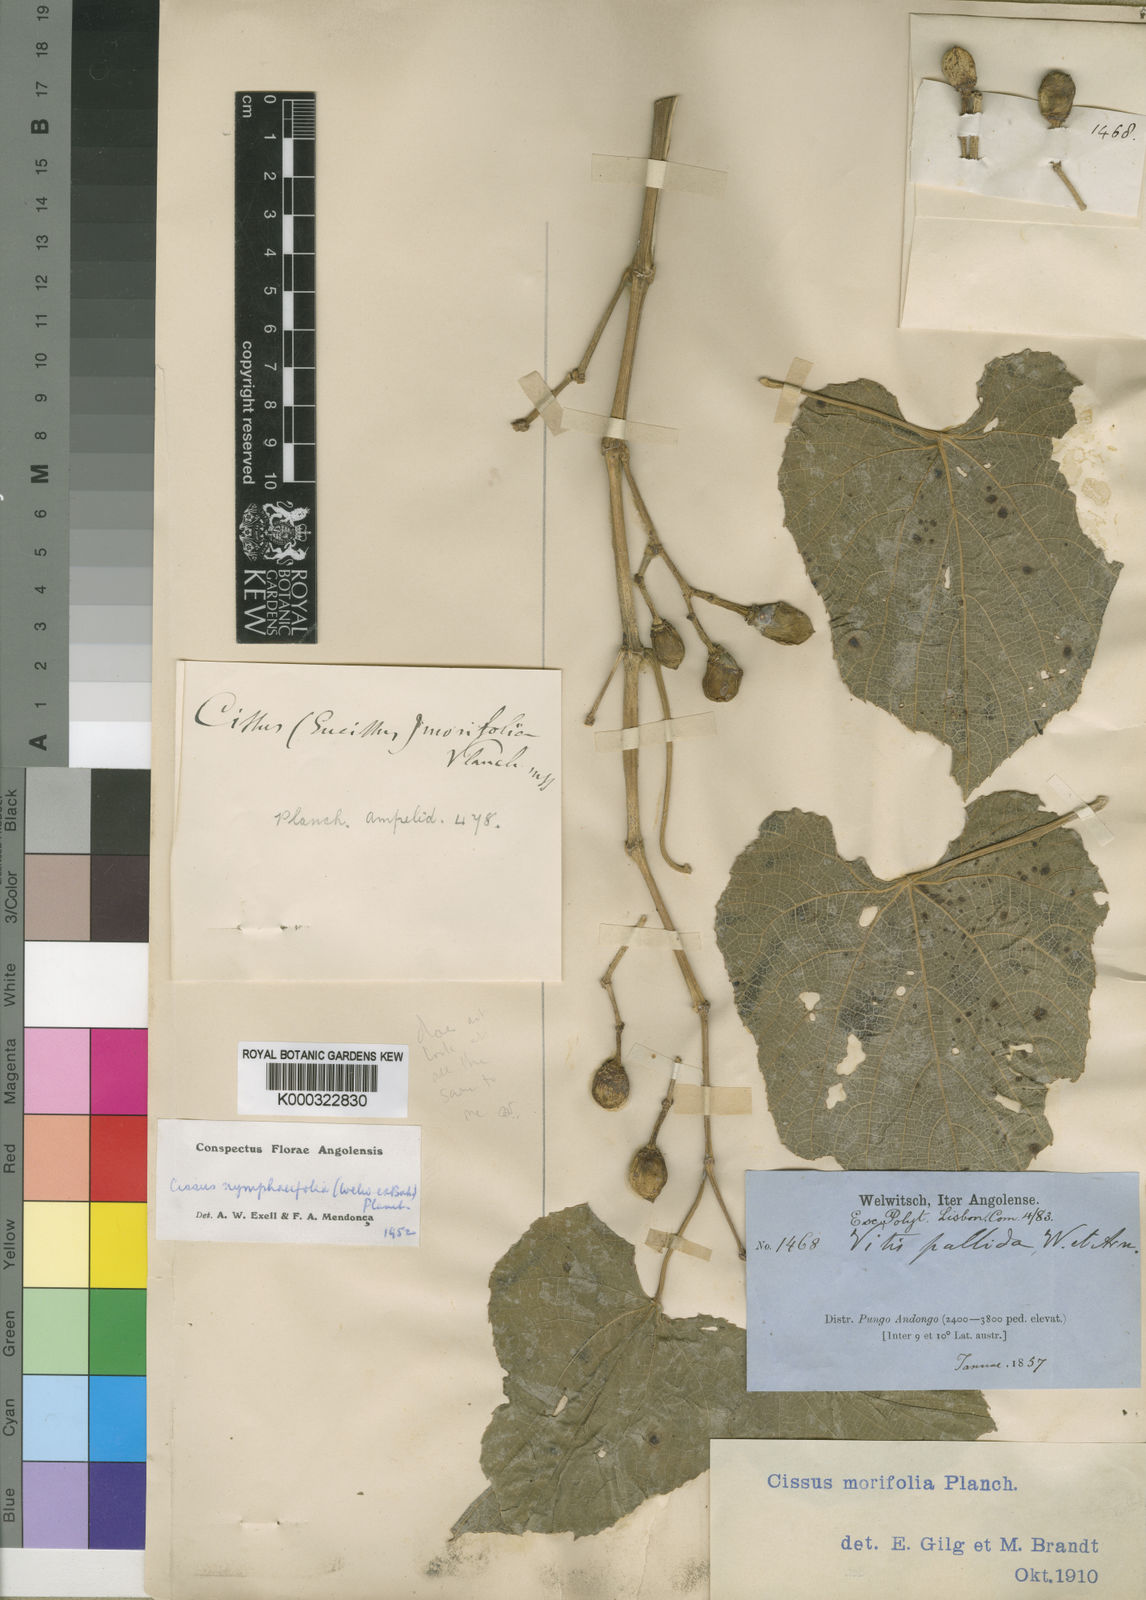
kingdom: Plantae
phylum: Tracheophyta
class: Magnoliopsida
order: Vitales
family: Vitaceae
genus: Cissus
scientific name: Cissus nymphaeifolia
